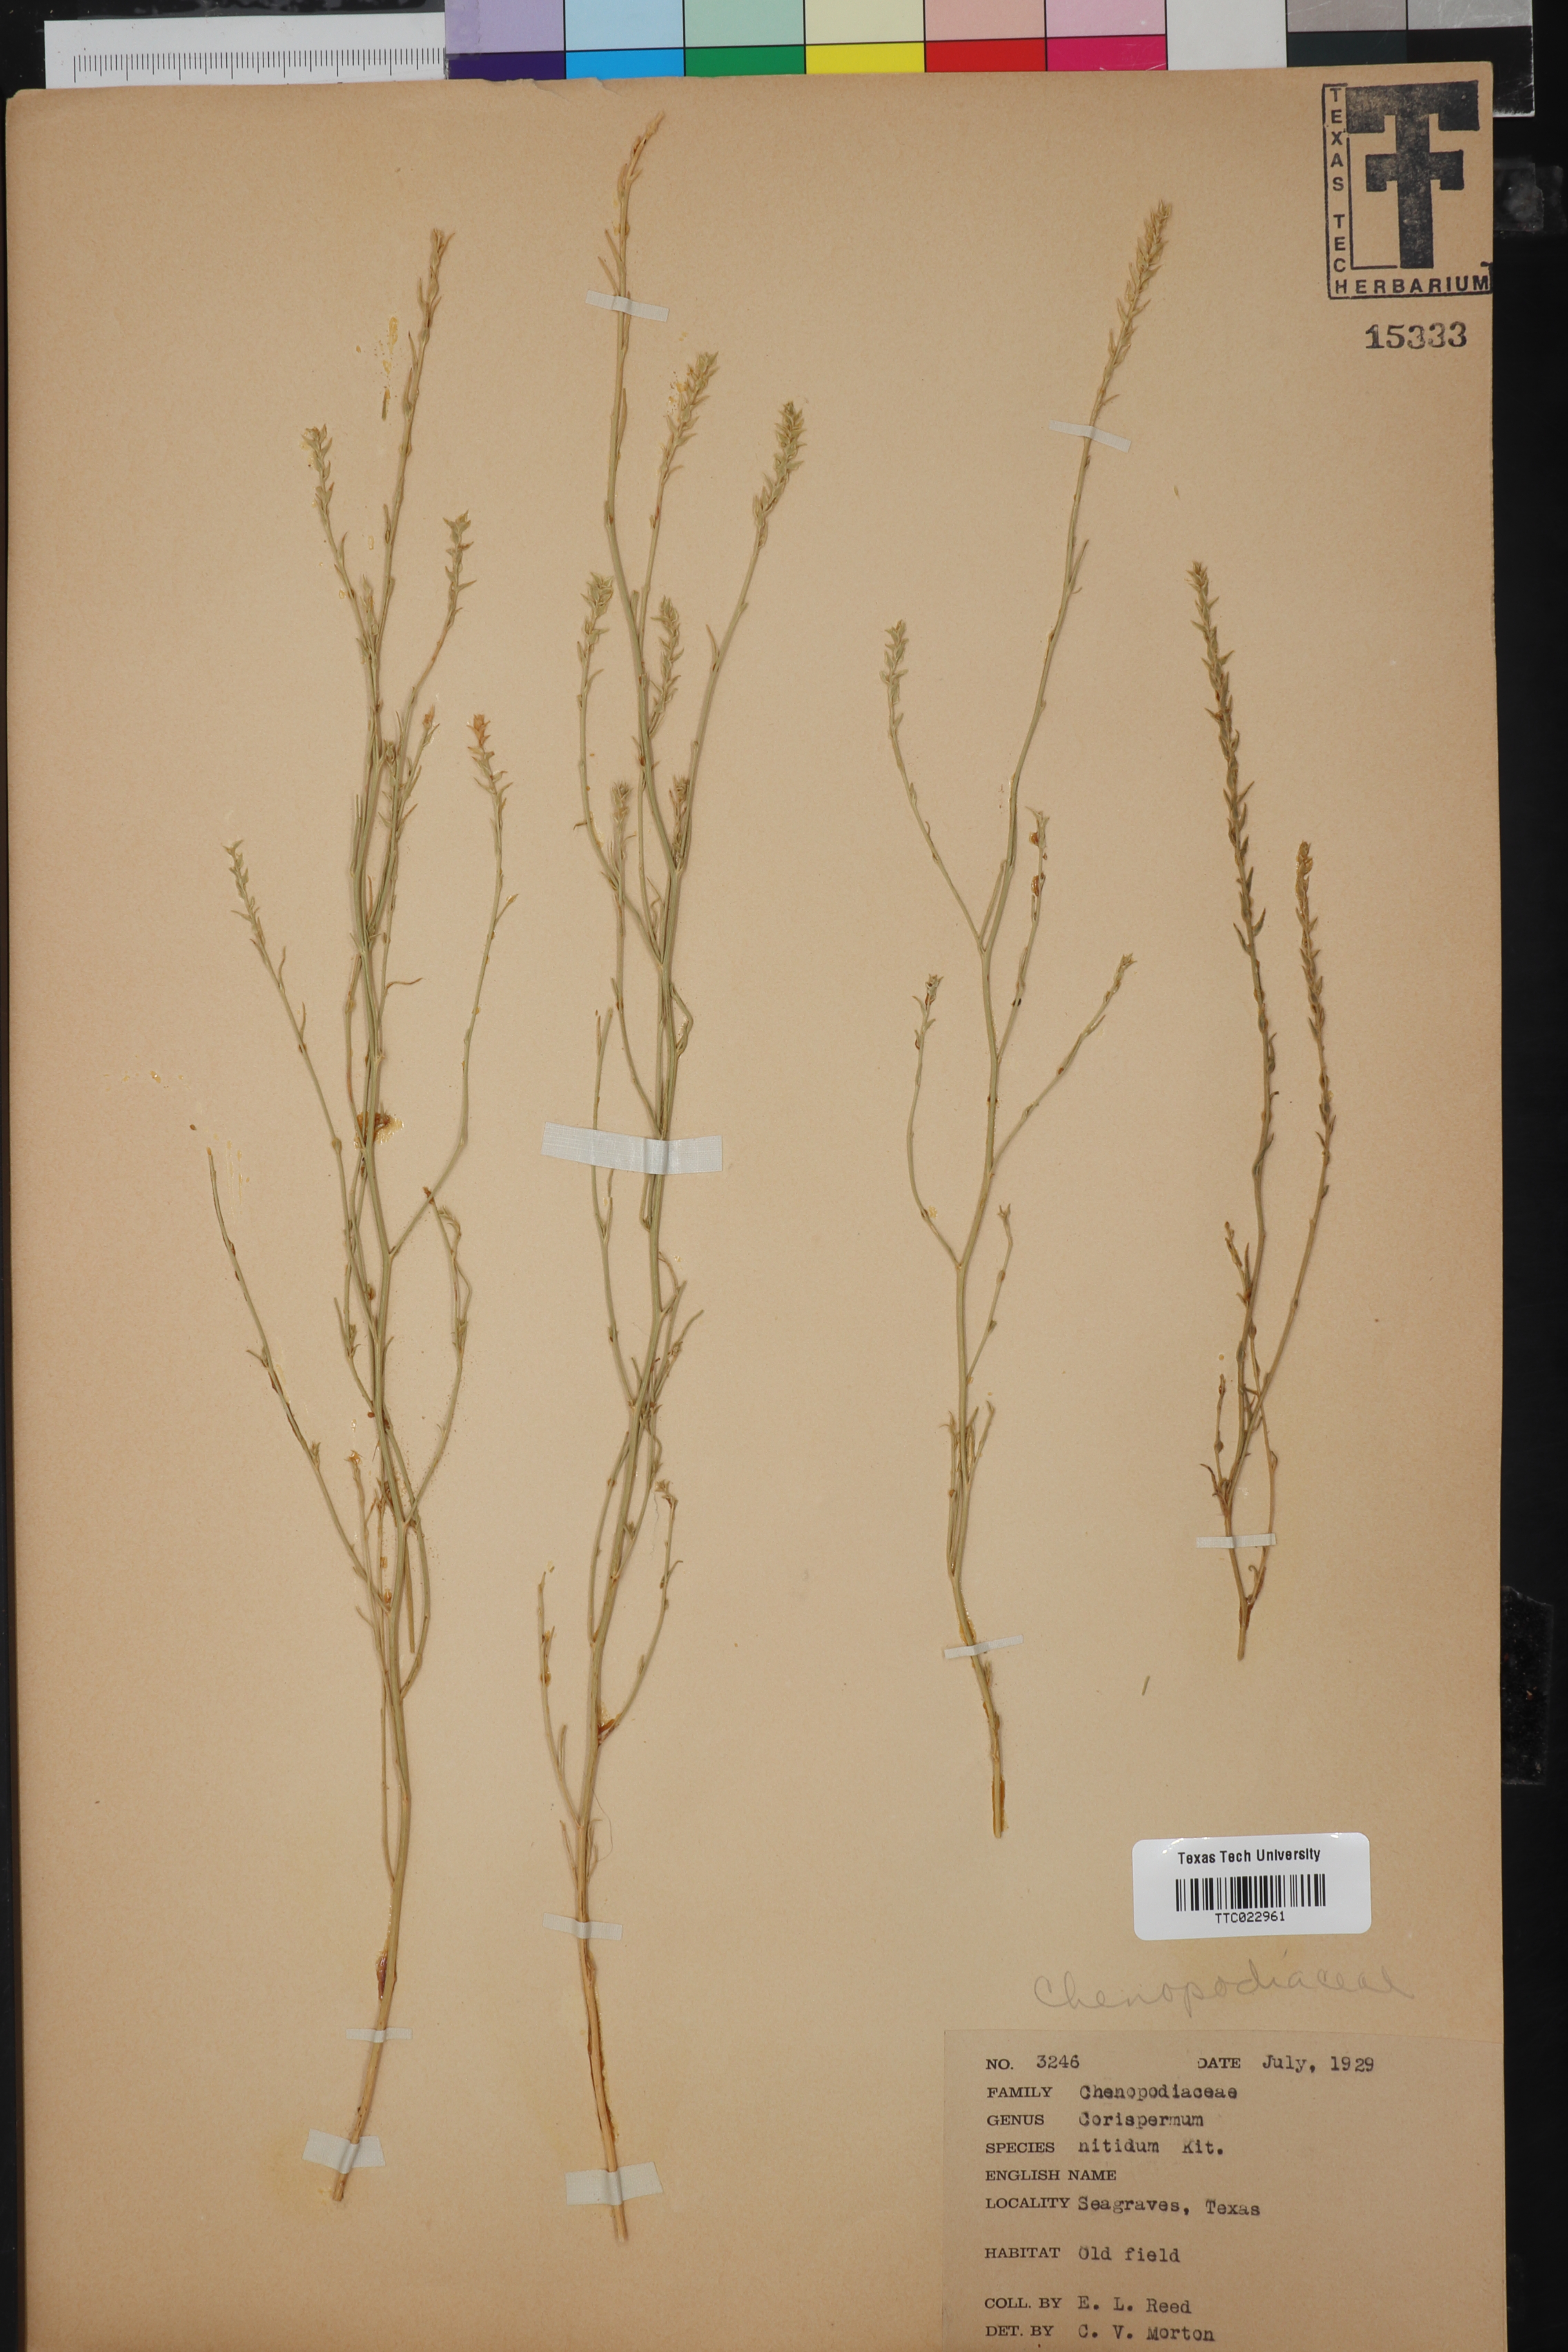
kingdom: Plantae
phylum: Tracheophyta
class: Magnoliopsida
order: Caryophyllales
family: Amaranthaceae
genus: Corispermum
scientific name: Corispermum nitidum
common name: Bugseed
